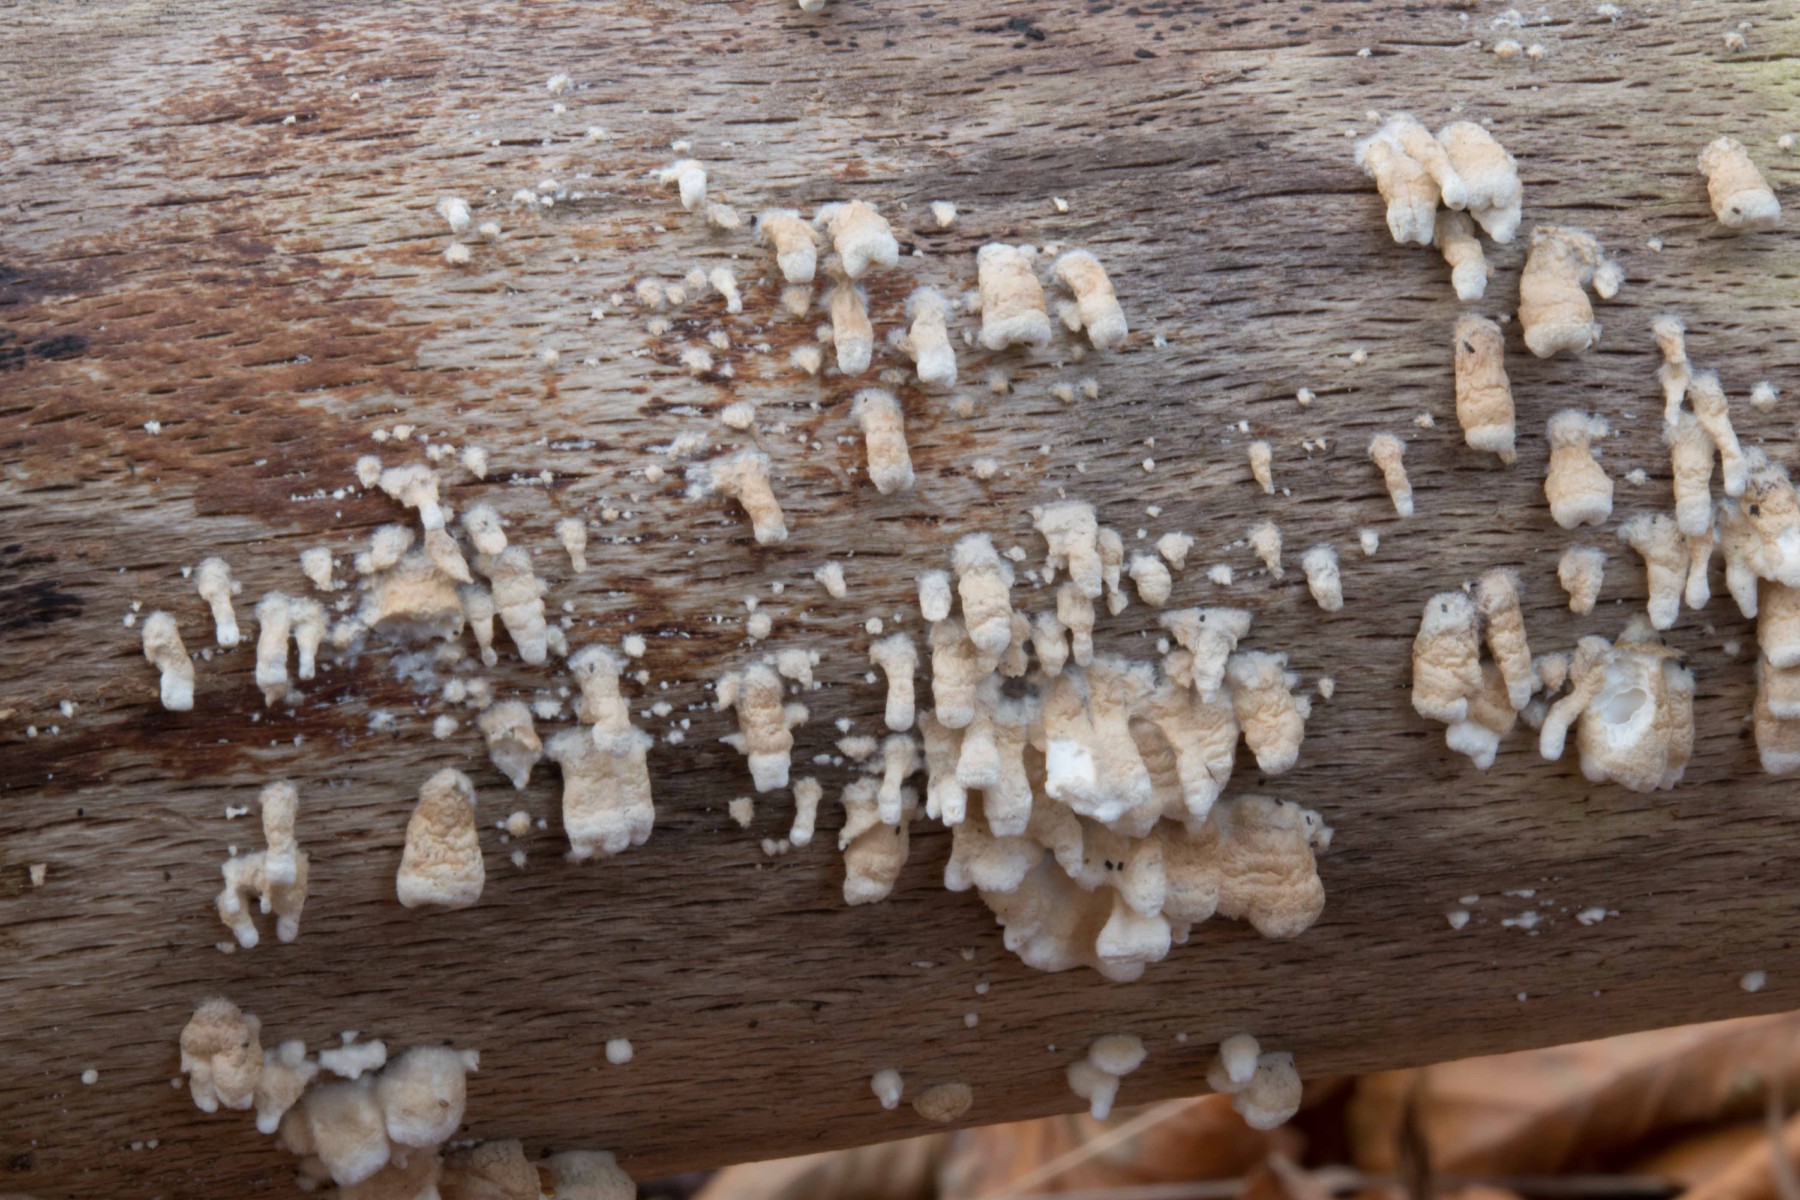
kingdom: Fungi
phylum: Basidiomycota
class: Agaricomycetes
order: Amylocorticiales
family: Amylocorticiaceae
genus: Plicaturopsis
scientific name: Plicaturopsis crispa
